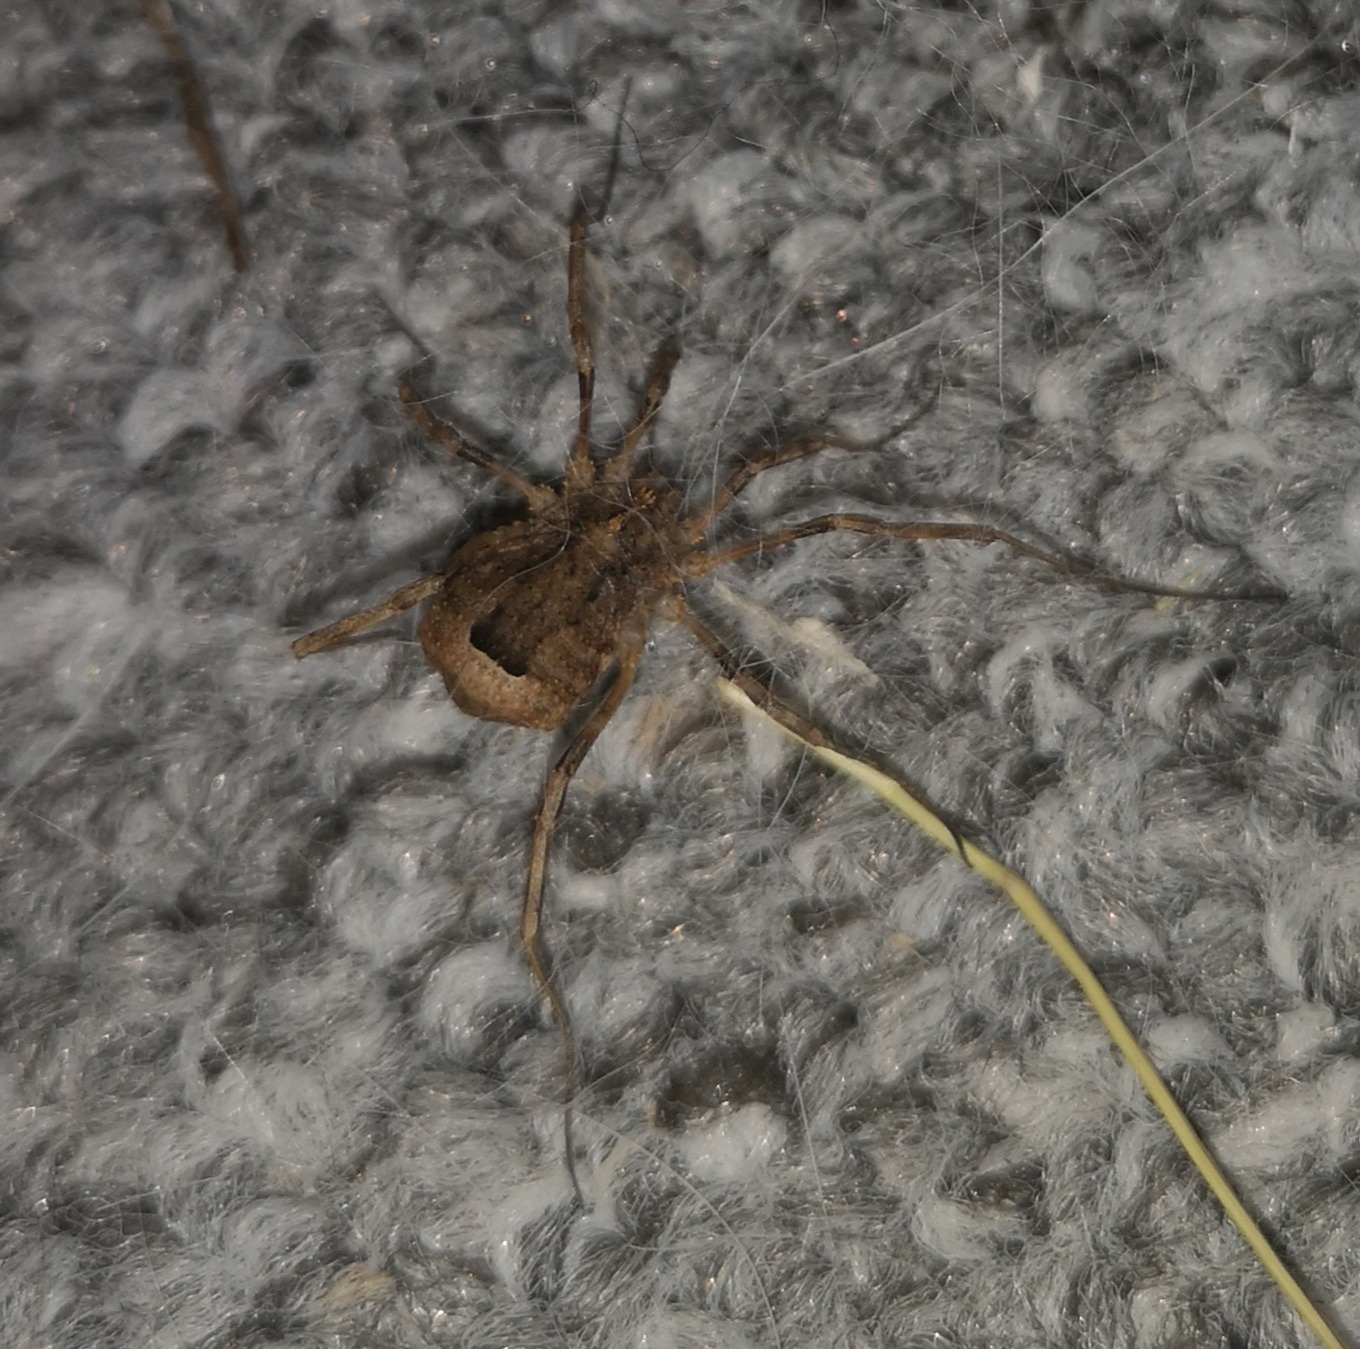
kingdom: Animalia
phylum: Arthropoda
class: Arachnida
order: Opiliones
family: Phalangiidae
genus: Odiellus
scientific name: Odiellus spinosus
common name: Kæmpemejer
